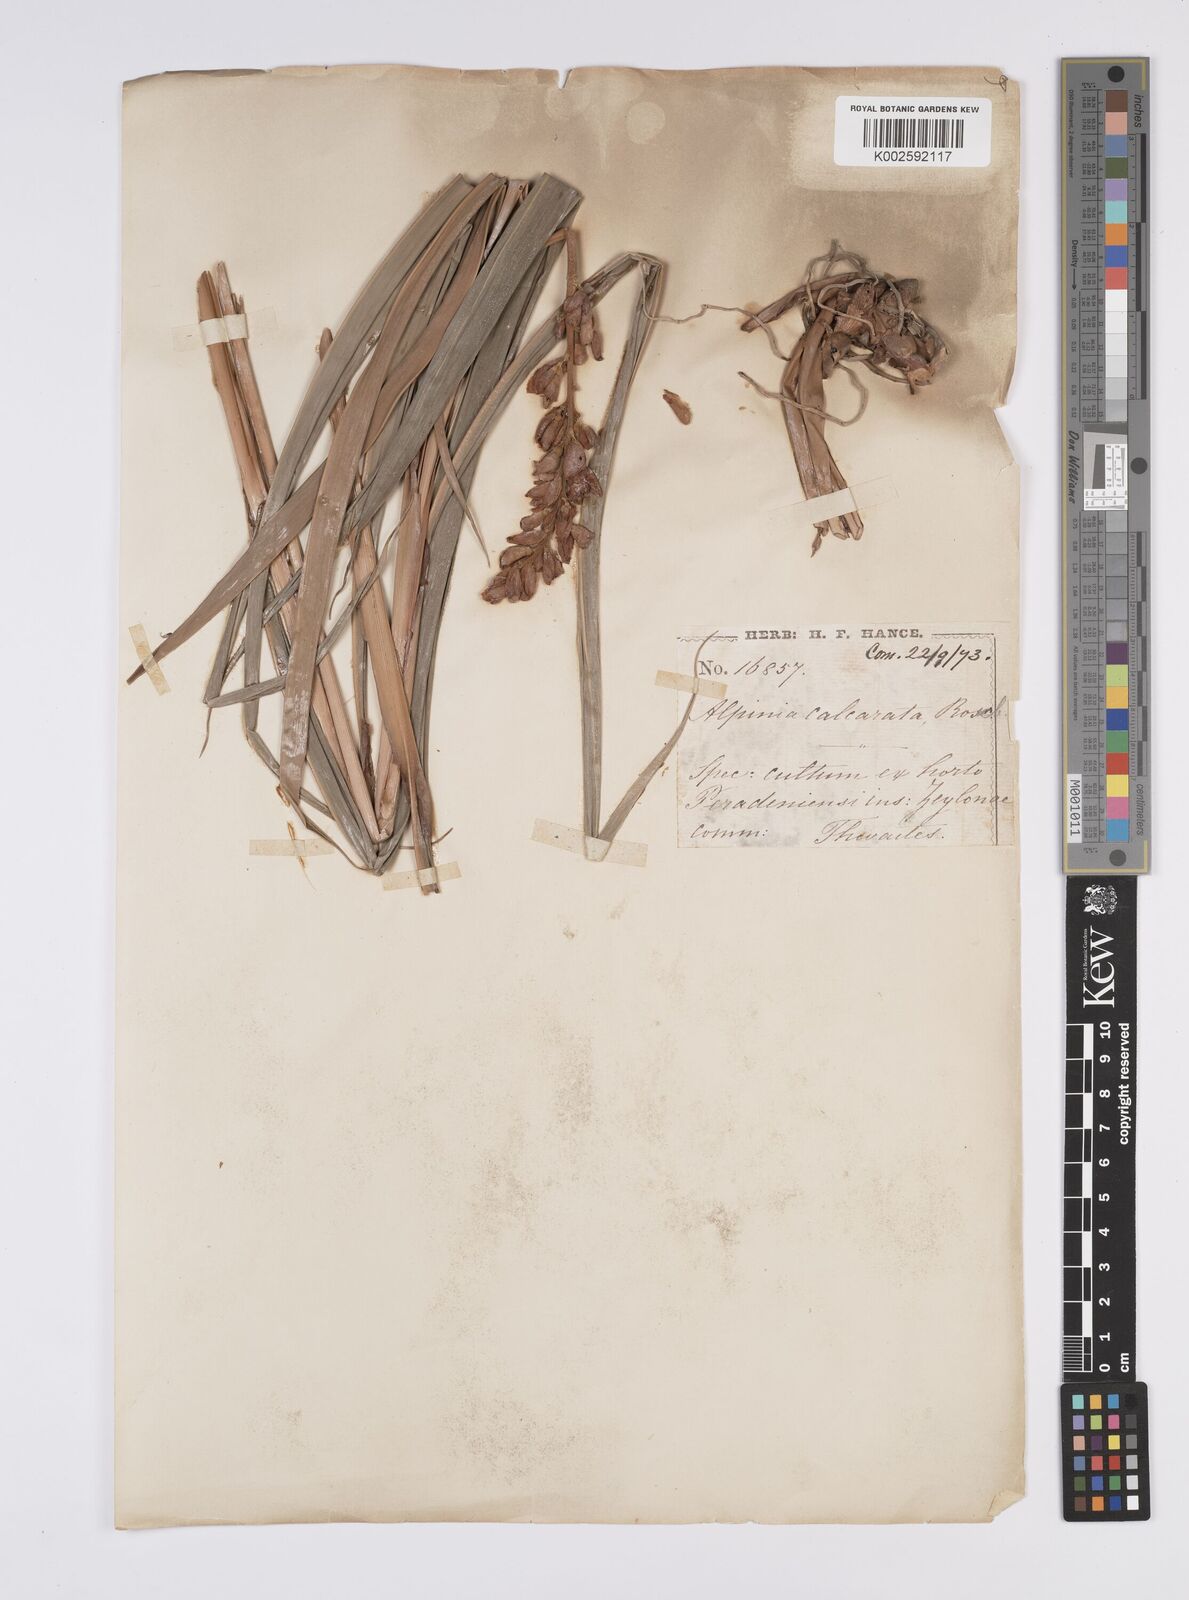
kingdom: Plantae
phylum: Tracheophyta
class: Liliopsida
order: Zingiberales
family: Zingiberaceae
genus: Alpinia
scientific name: Alpinia
